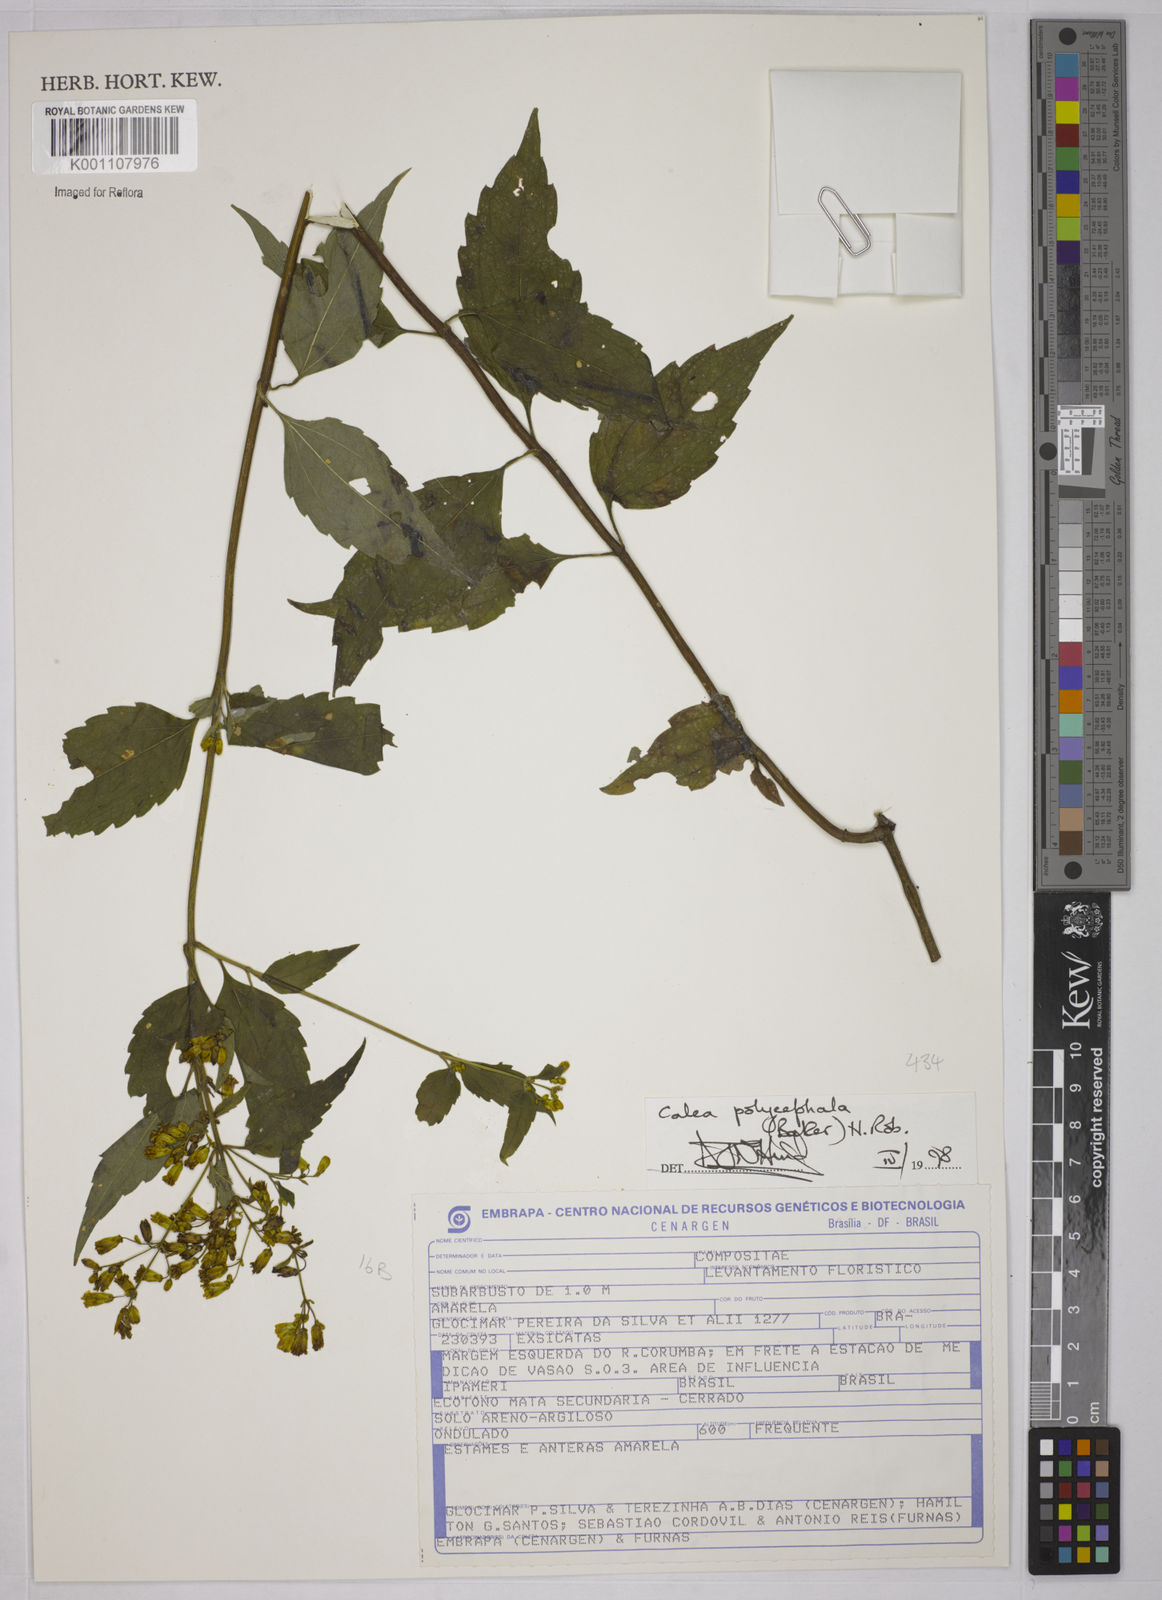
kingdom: Plantae
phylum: Tracheophyta
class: Magnoliopsida
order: Asterales
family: Asteraceae
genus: Calea
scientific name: Calea polycephala
